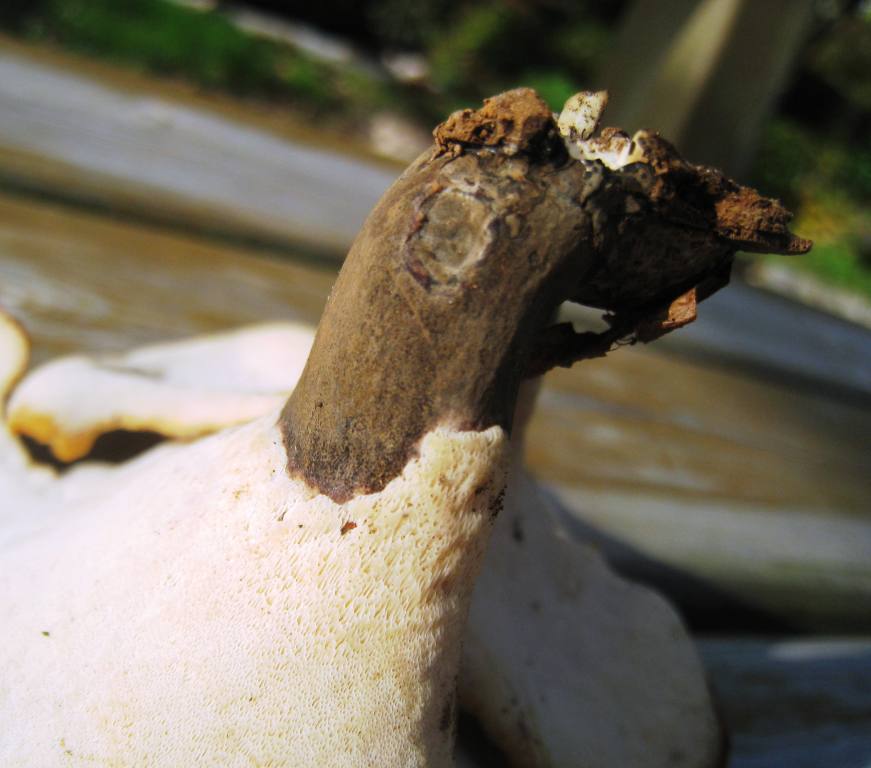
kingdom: Fungi
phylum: Basidiomycota
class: Agaricomycetes
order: Polyporales
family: Polyporaceae
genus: Picipes
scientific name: Picipes badius
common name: kastaniebrun stilkporesvamp
